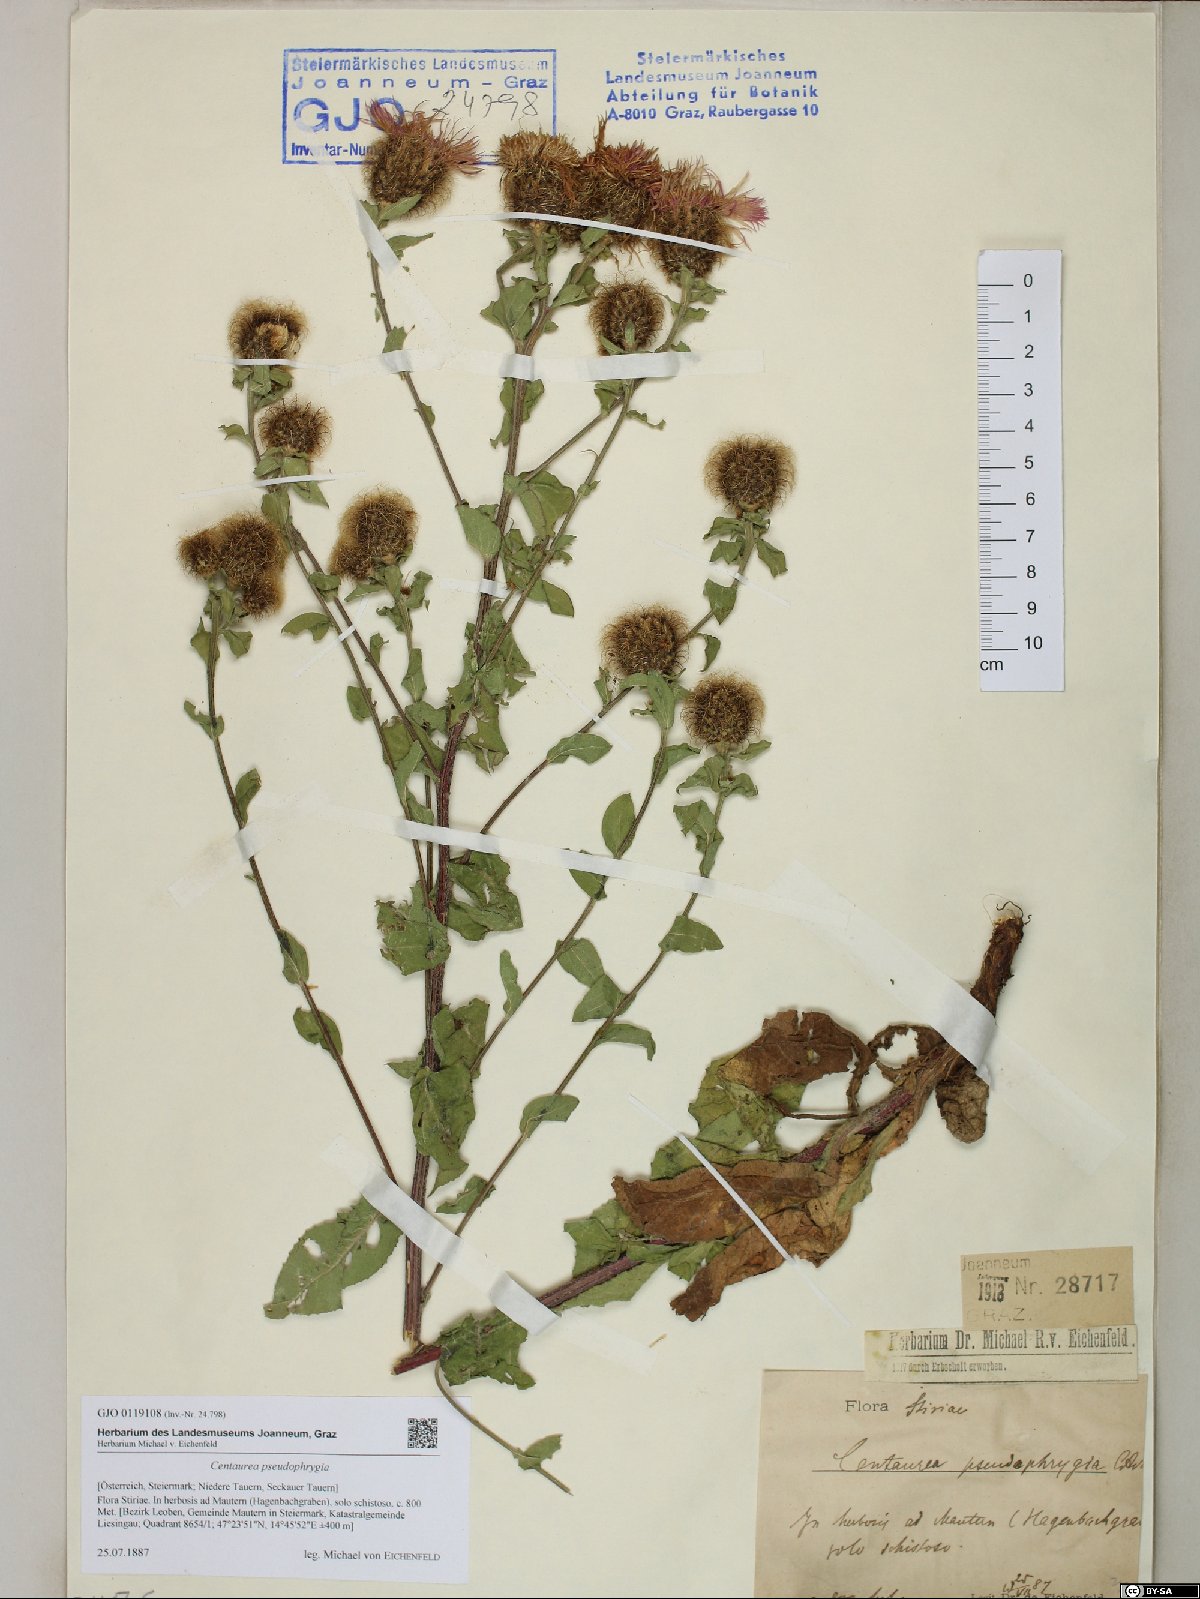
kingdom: Plantae
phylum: Tracheophyta
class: Magnoliopsida
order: Asterales
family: Asteraceae
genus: Centaurea
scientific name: Centaurea pseudophrygia
